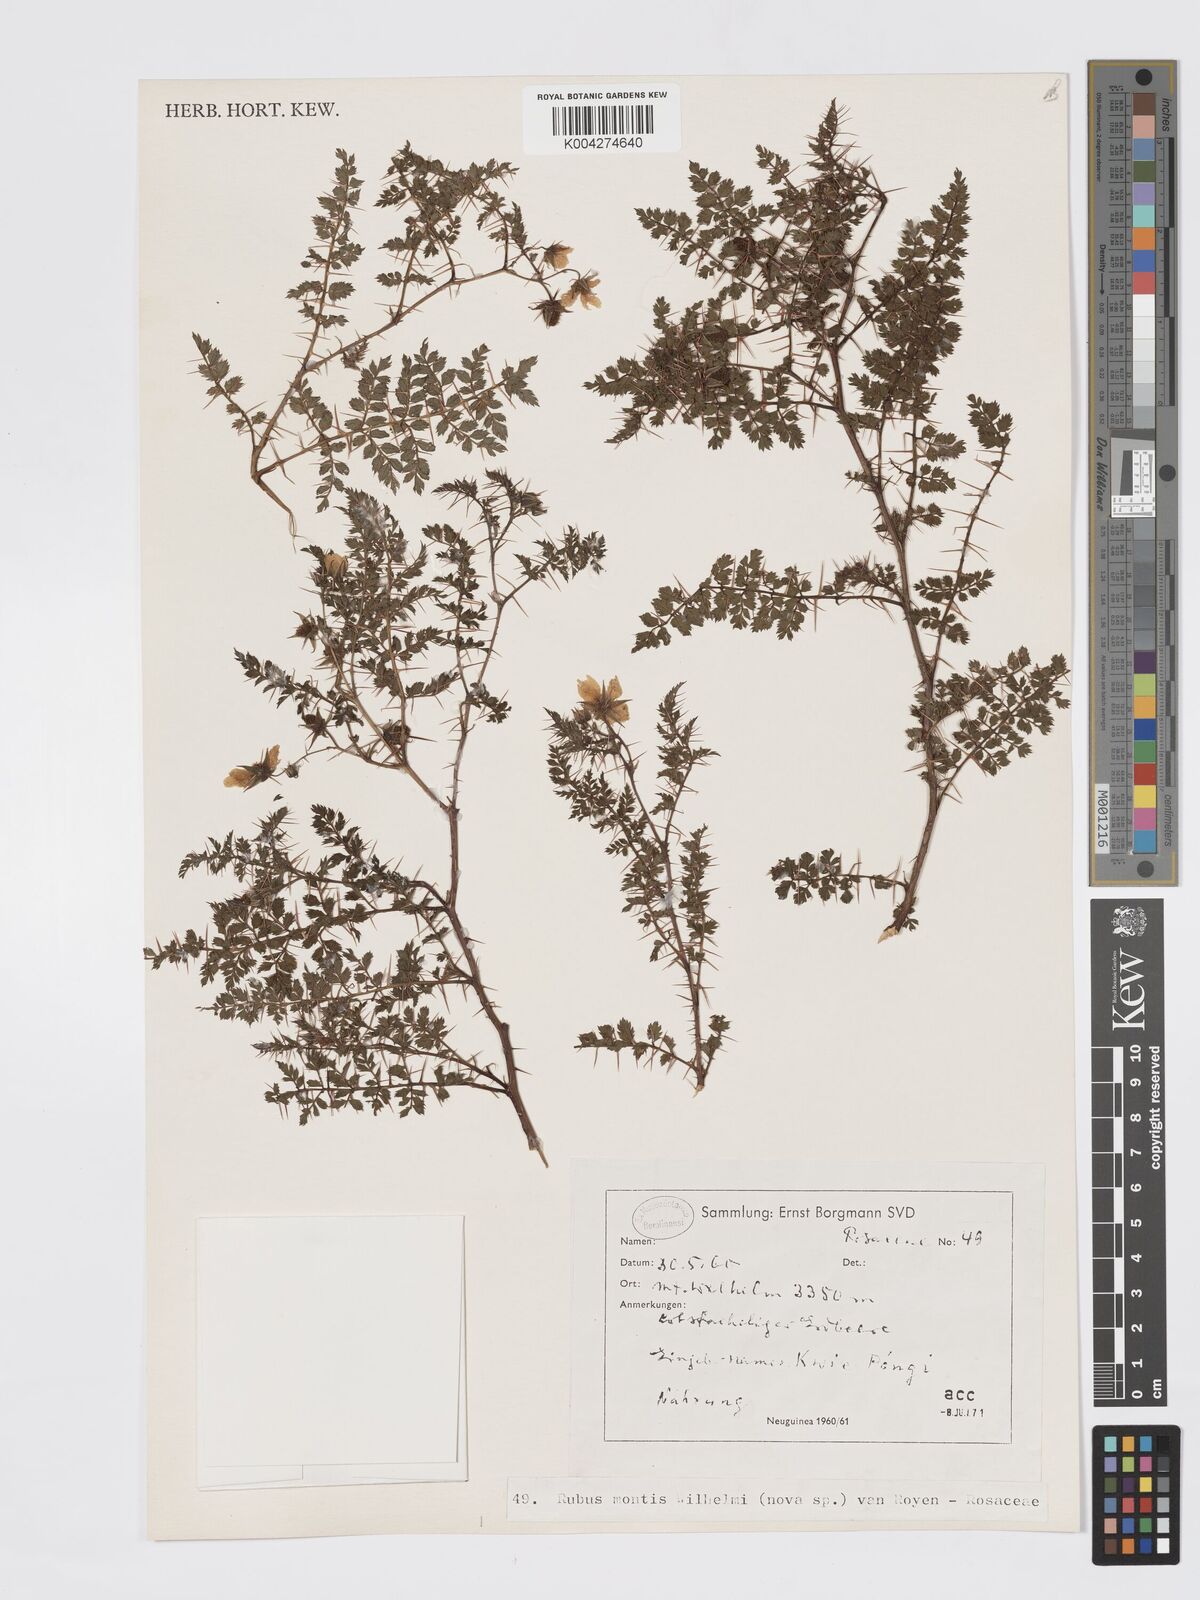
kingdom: Plantae
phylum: Tracheophyta
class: Magnoliopsida
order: Rosales
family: Rosaceae
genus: Rubus
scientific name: Rubus montis-wilhelmii
